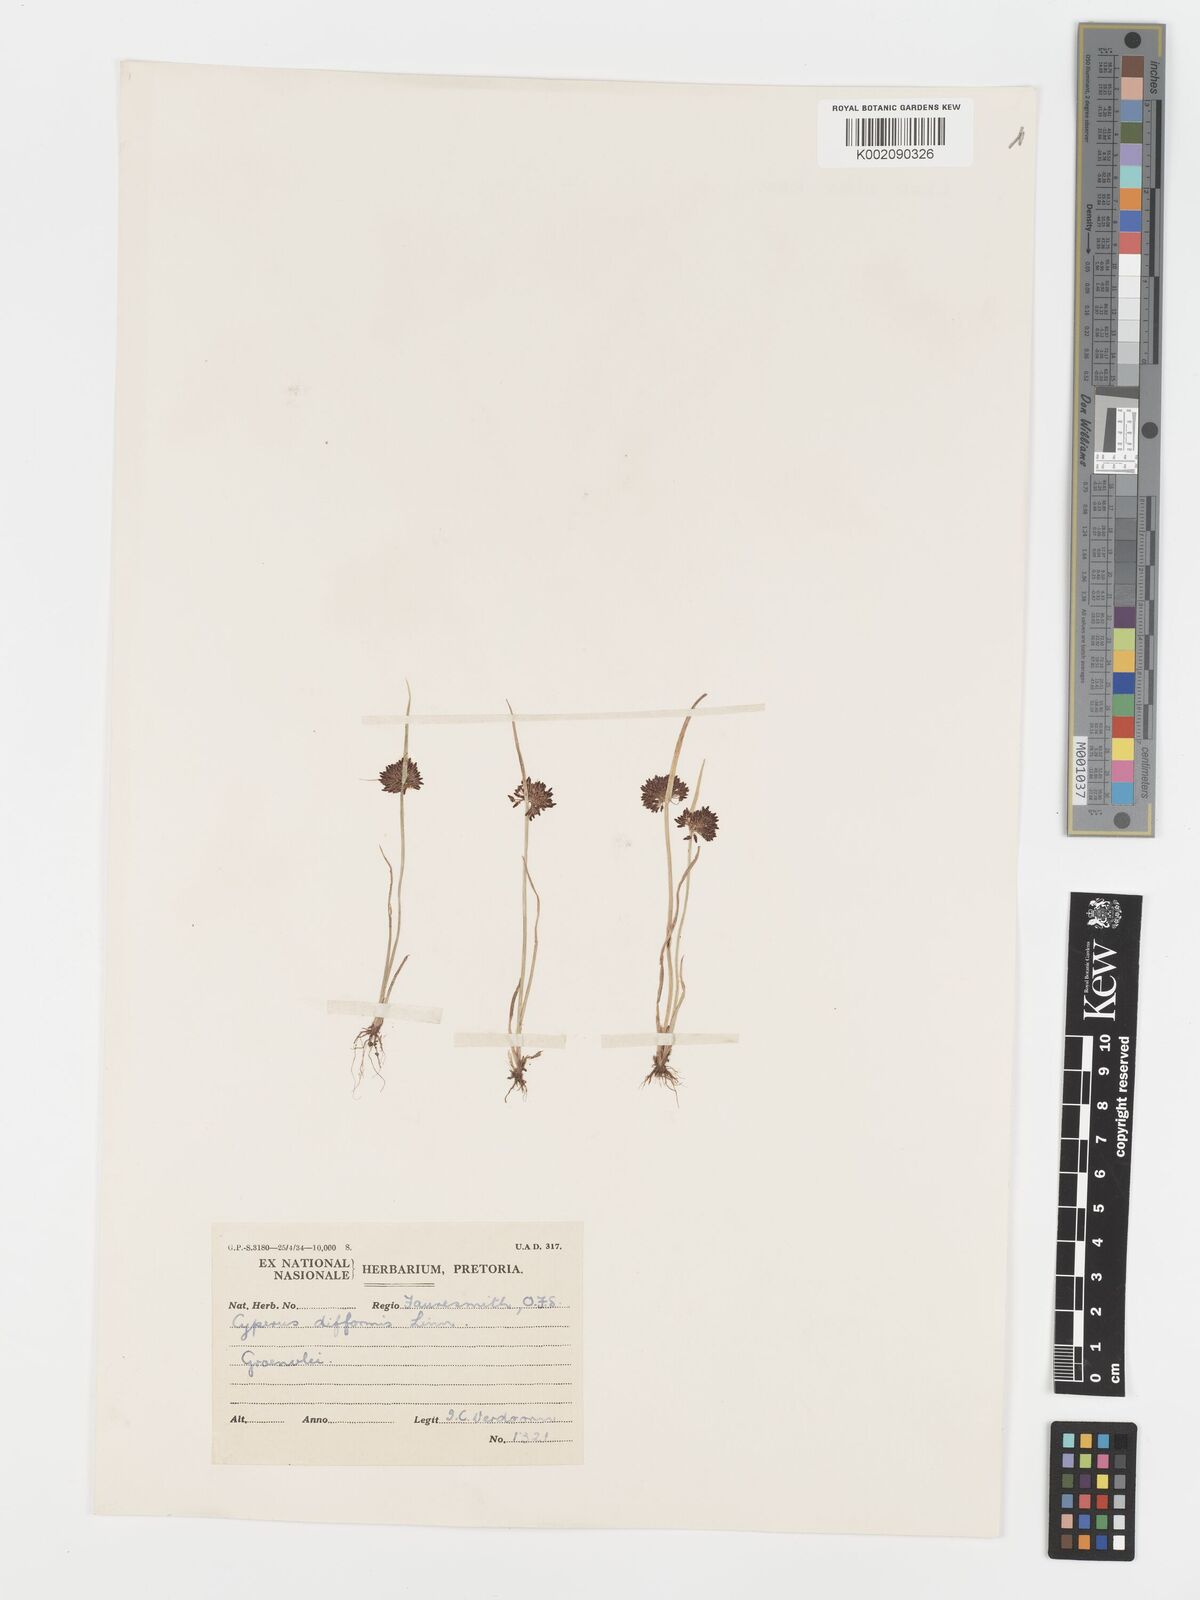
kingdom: Plantae
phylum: Tracheophyta
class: Liliopsida
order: Poales
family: Cyperaceae
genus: Cyperus
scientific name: Cyperus difformis
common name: Variable flatsedge
